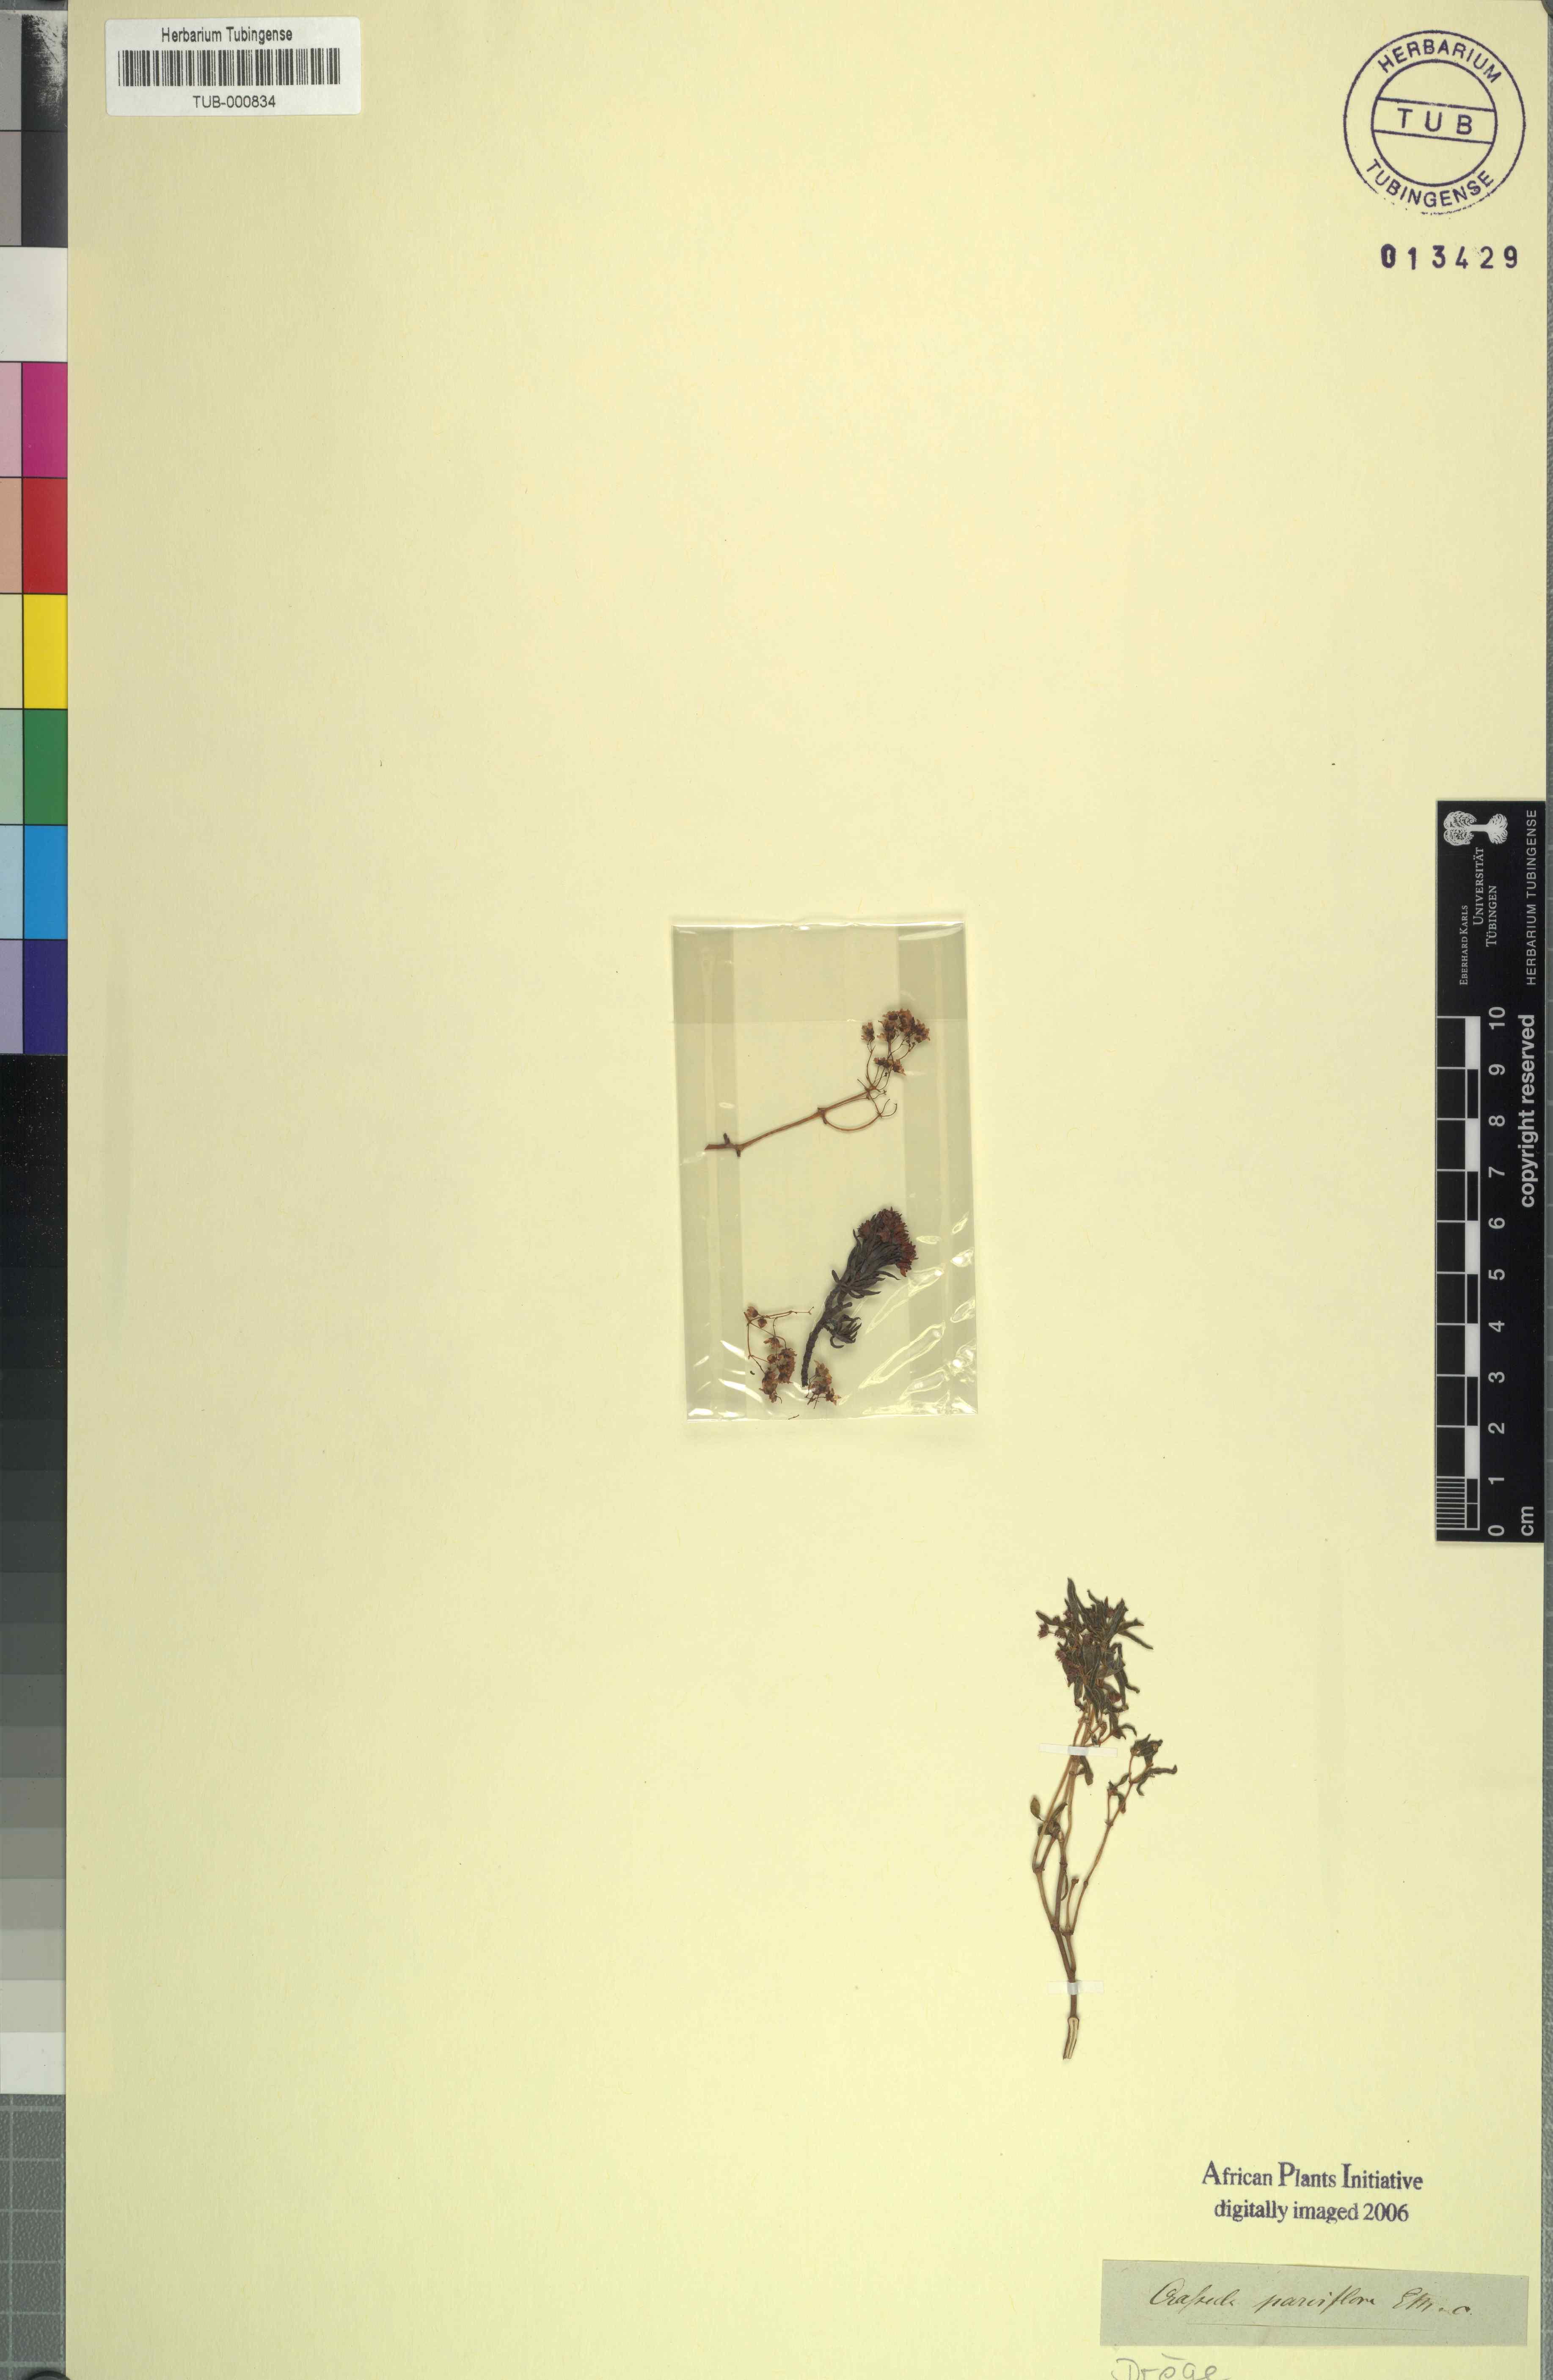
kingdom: Plantae
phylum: Tracheophyta
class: Magnoliopsida
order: Saxifragales
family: Crassulaceae
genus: Crassula
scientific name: Crassula expansa
